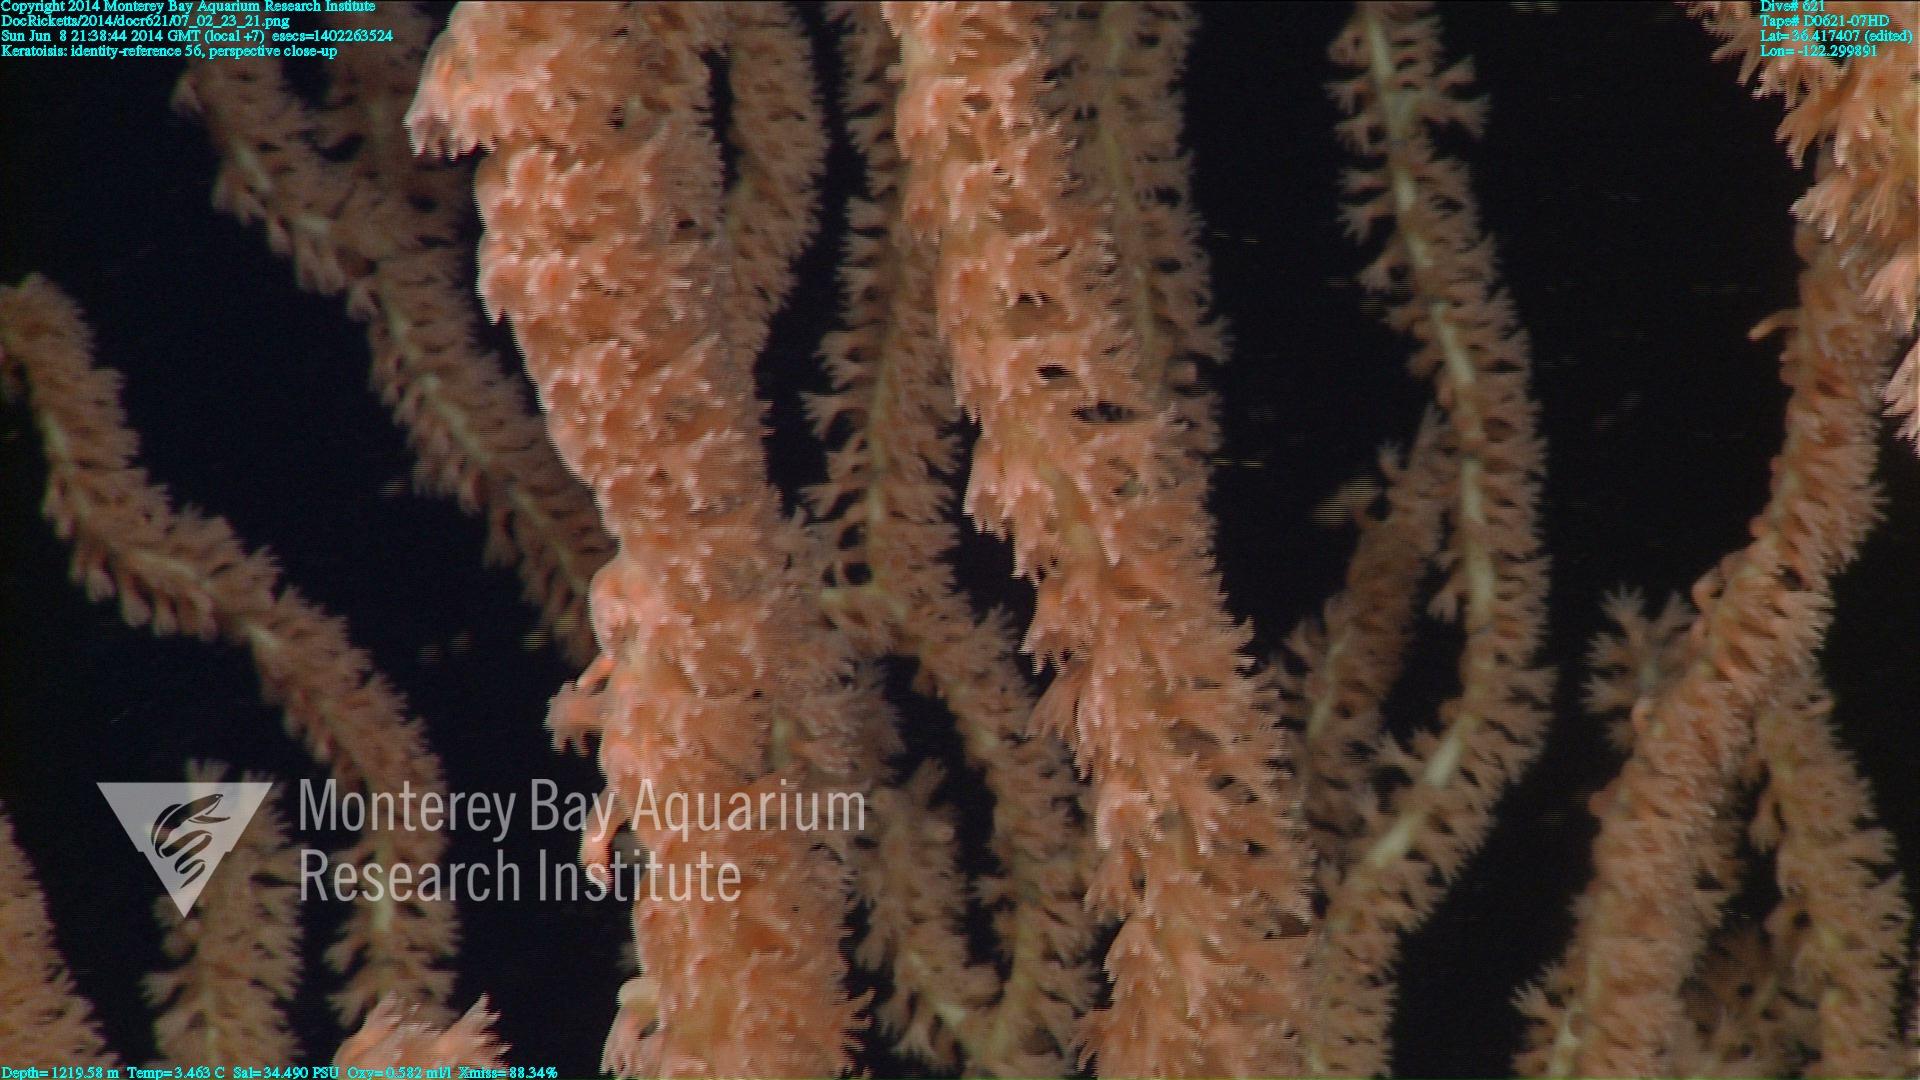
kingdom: Animalia
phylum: Cnidaria
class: Anthozoa
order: Scleralcyonacea
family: Keratoisididae
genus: Keratoisis
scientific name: Keratoisis
